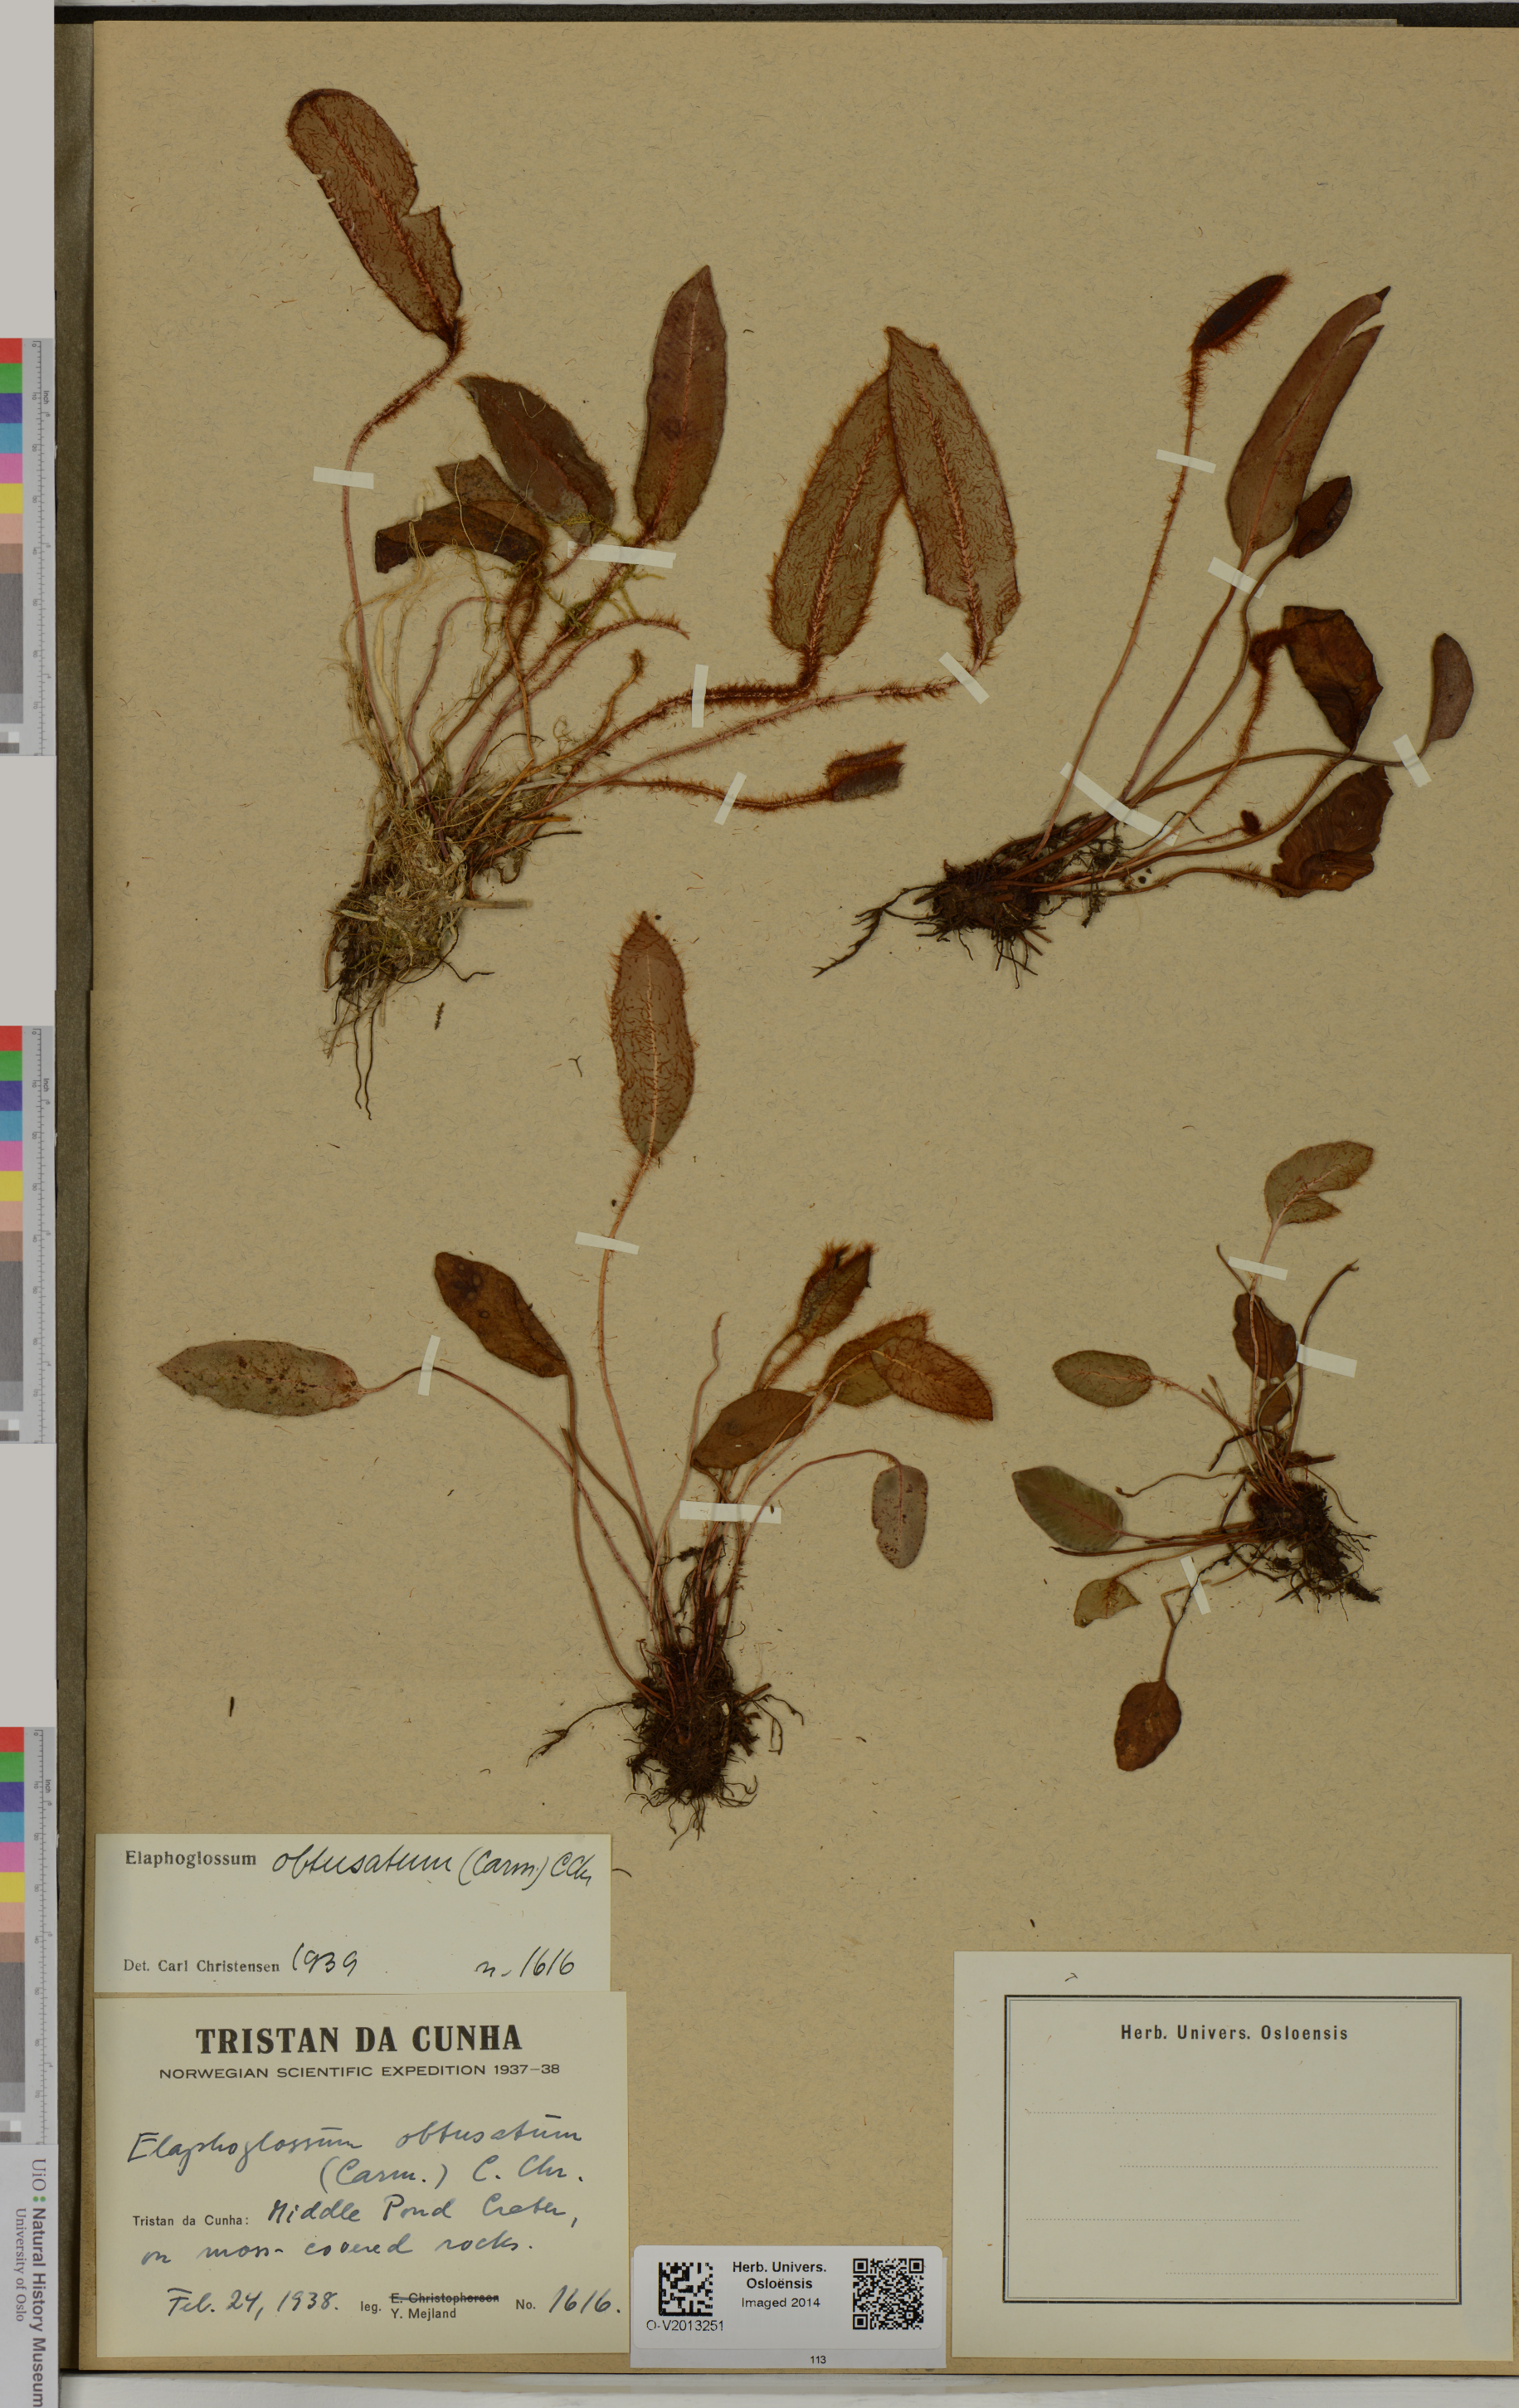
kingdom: Plantae
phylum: Tracheophyta
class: Polypodiopsida
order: Polypodiales
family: Dryopteridaceae
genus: Elaphoglossum
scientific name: Elaphoglossum obtusatum
